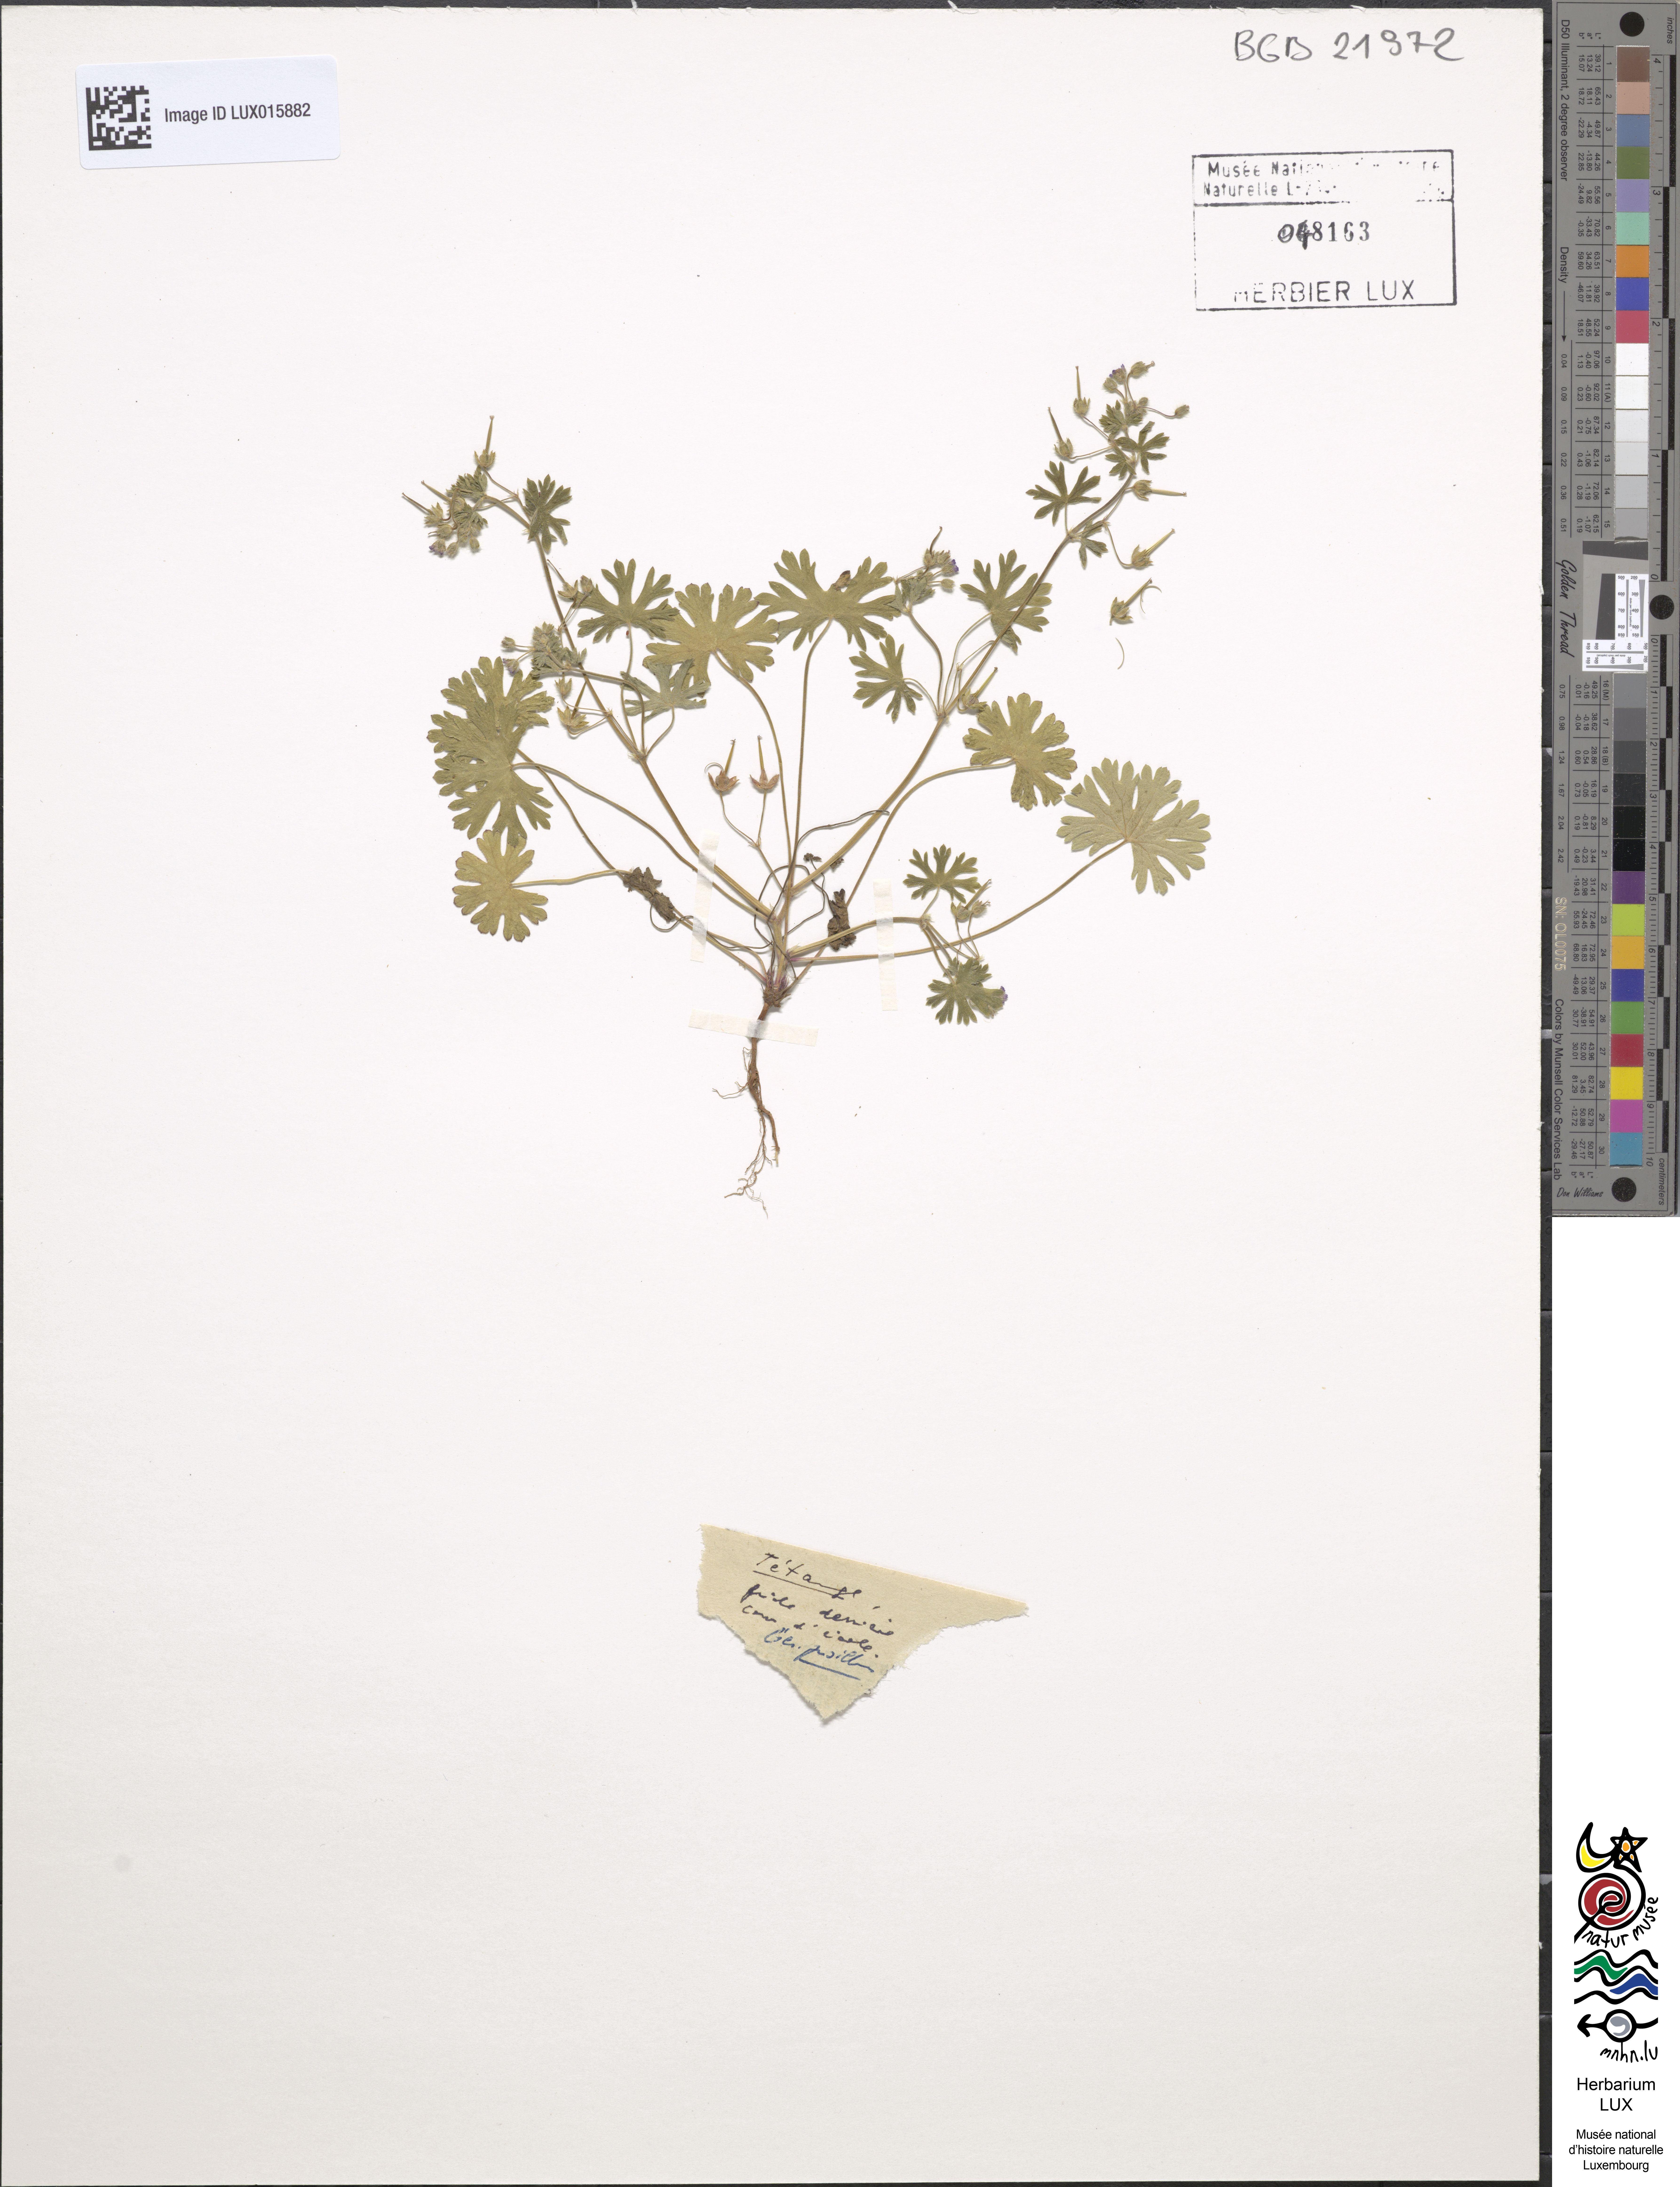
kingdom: Plantae
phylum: Tracheophyta
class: Magnoliopsida
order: Geraniales
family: Geraniaceae
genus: Geranium
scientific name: Geranium pusillum
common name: Small geranium
